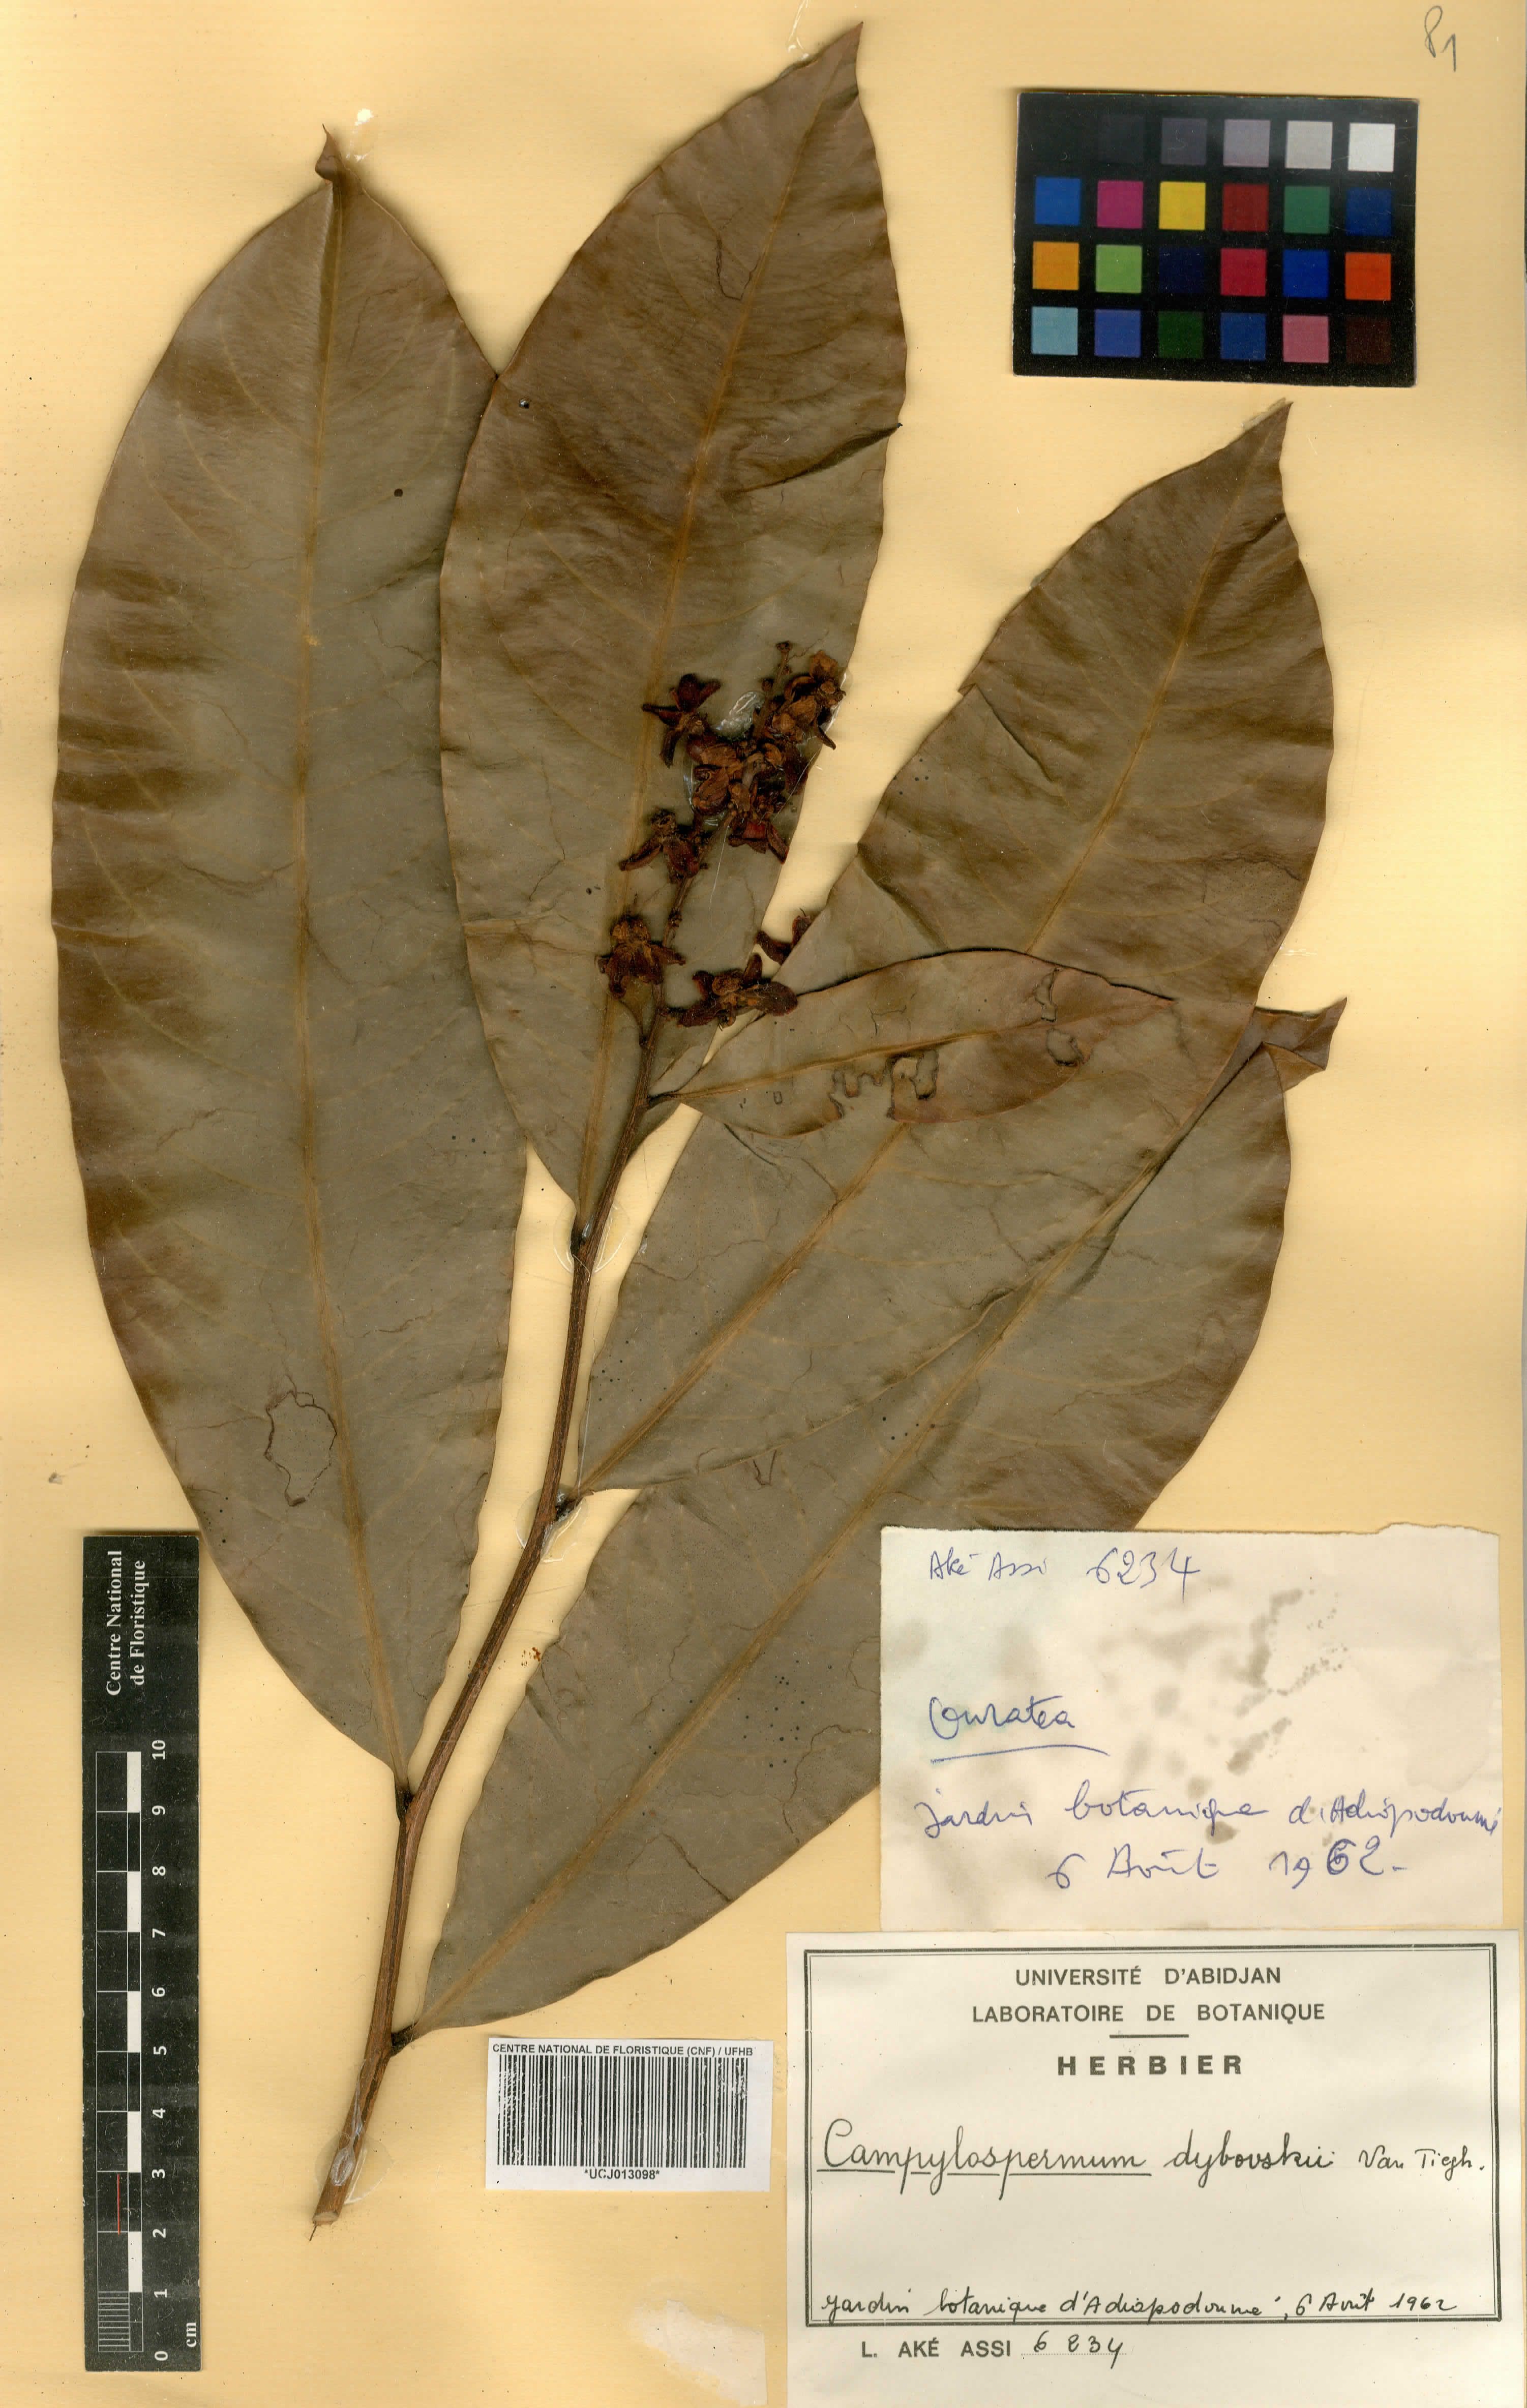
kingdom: Plantae
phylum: Tracheophyta
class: Magnoliopsida
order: Malpighiales
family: Ochnaceae
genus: Campylospermum
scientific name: Campylospermum dybovskii
